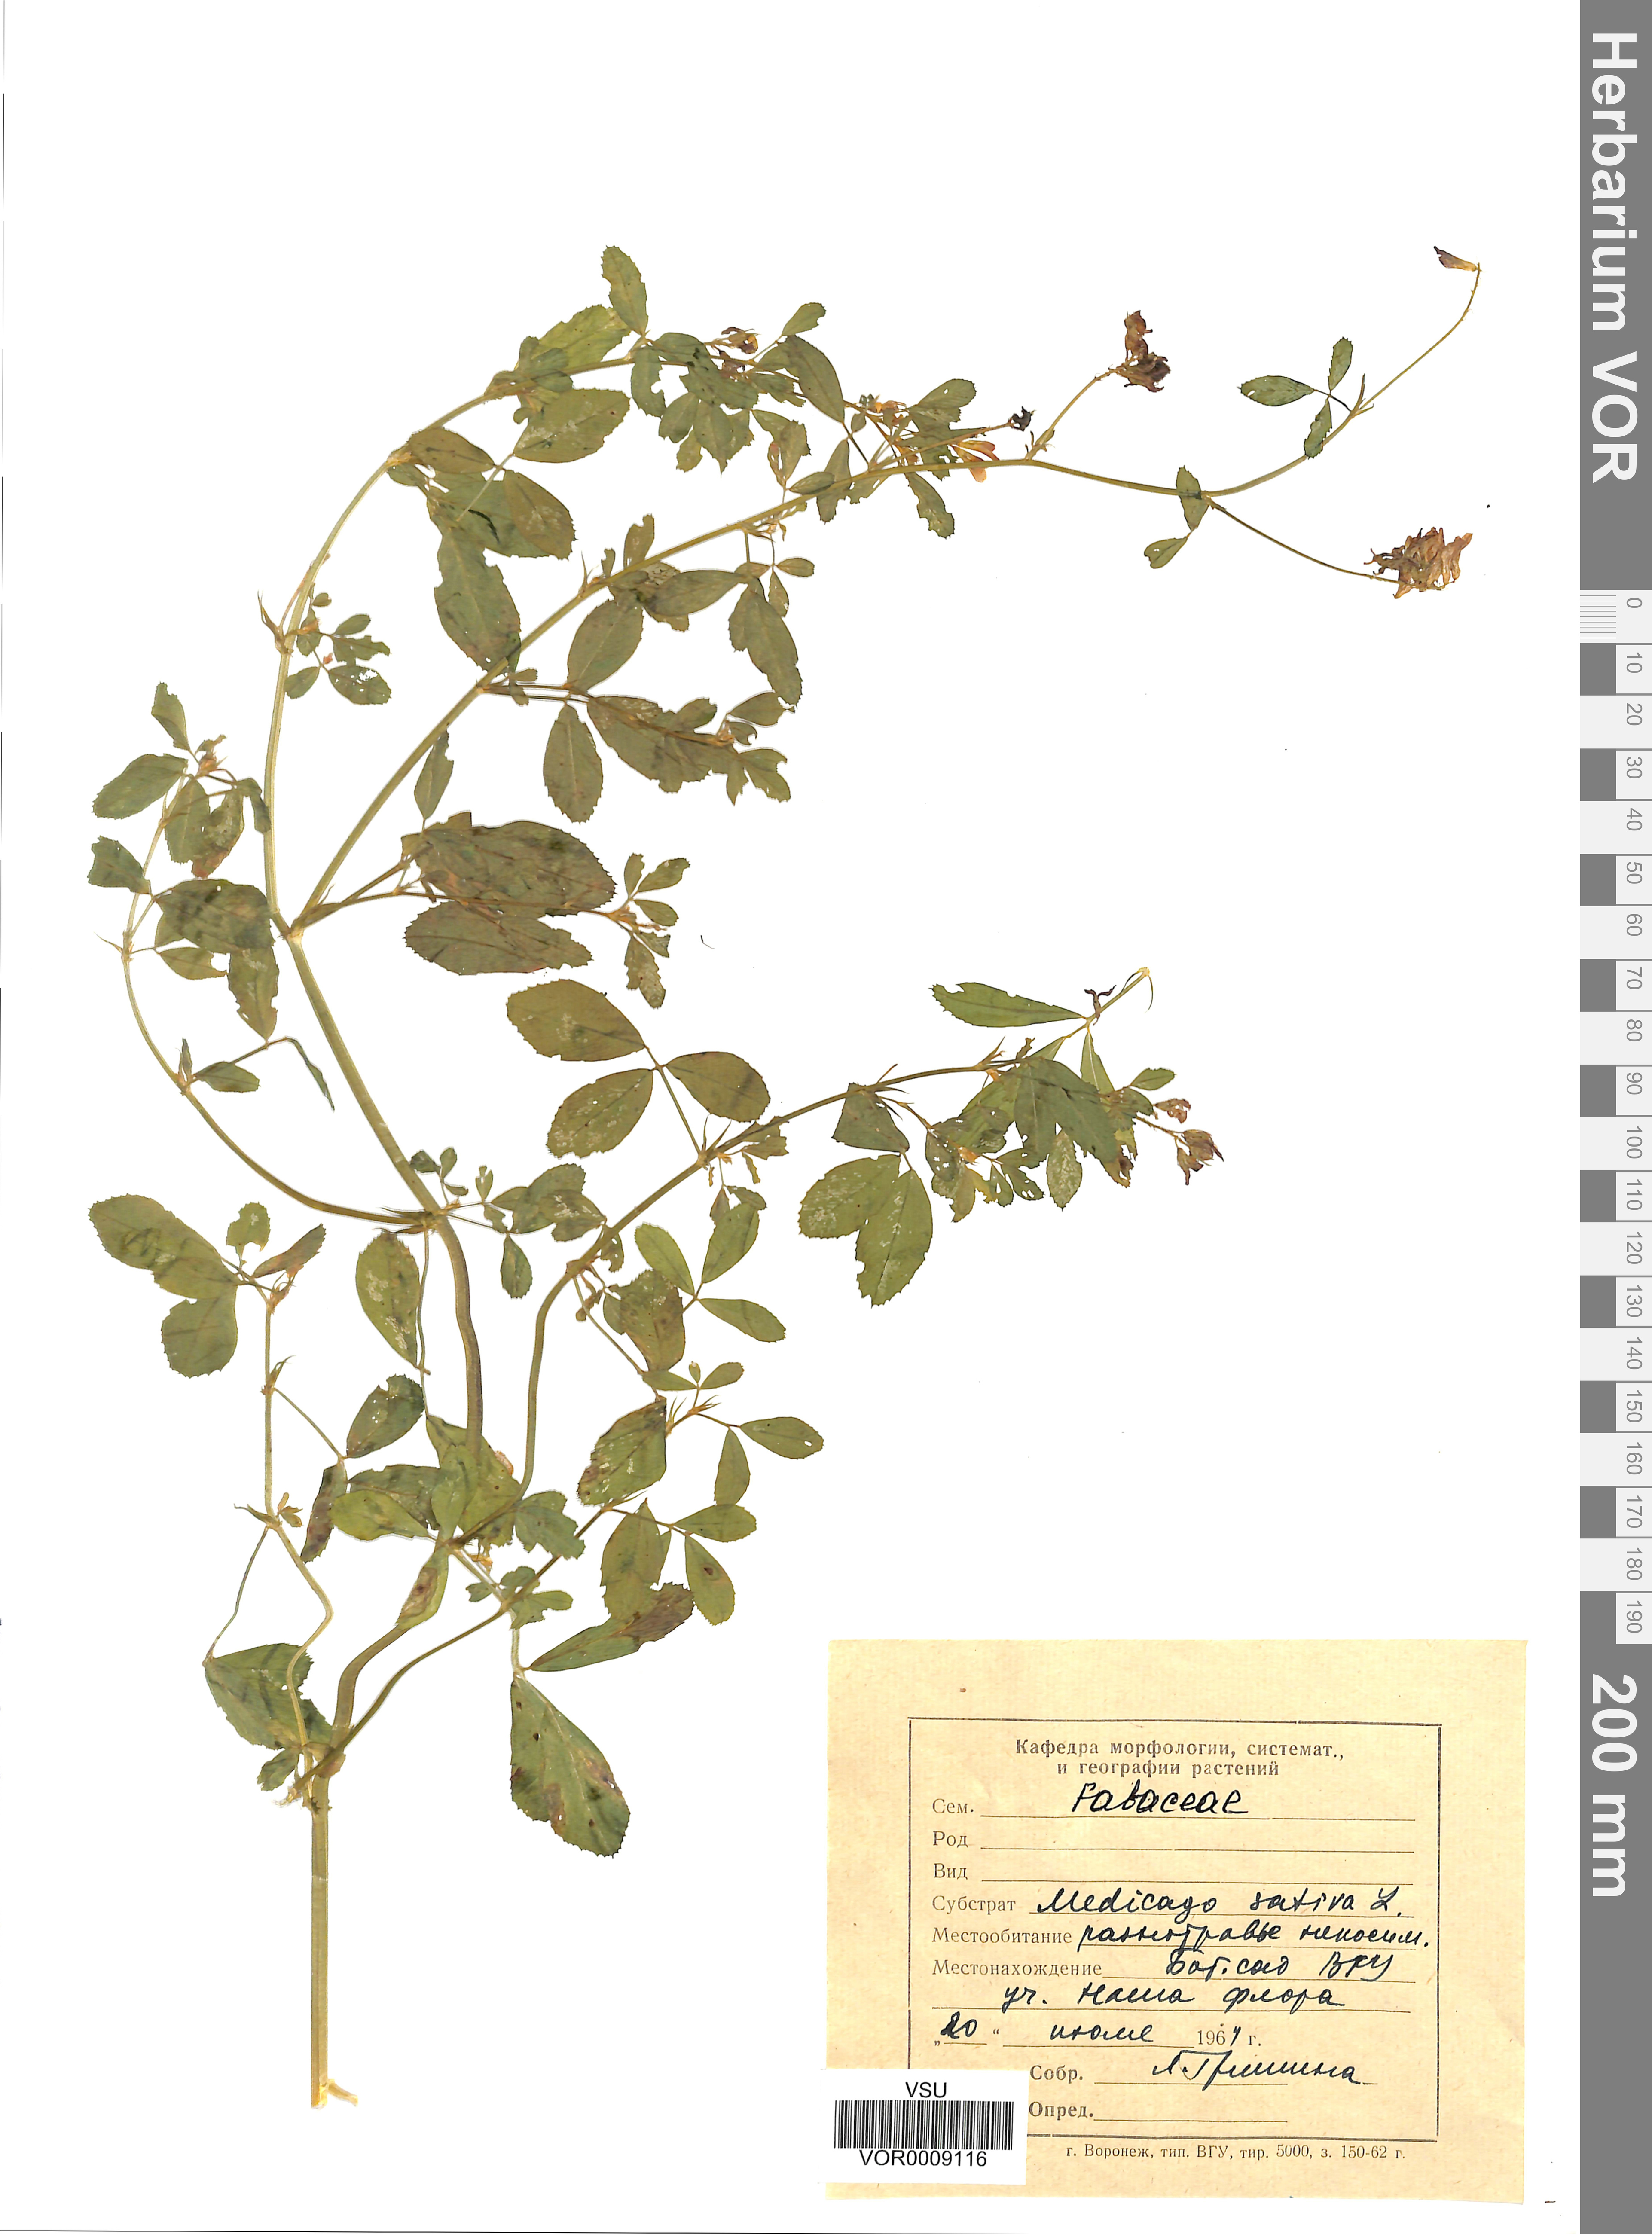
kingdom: Plantae
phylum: Tracheophyta
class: Magnoliopsida
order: Fabales
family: Fabaceae
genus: Medicago
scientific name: Medicago sativa
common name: Alfalfa
